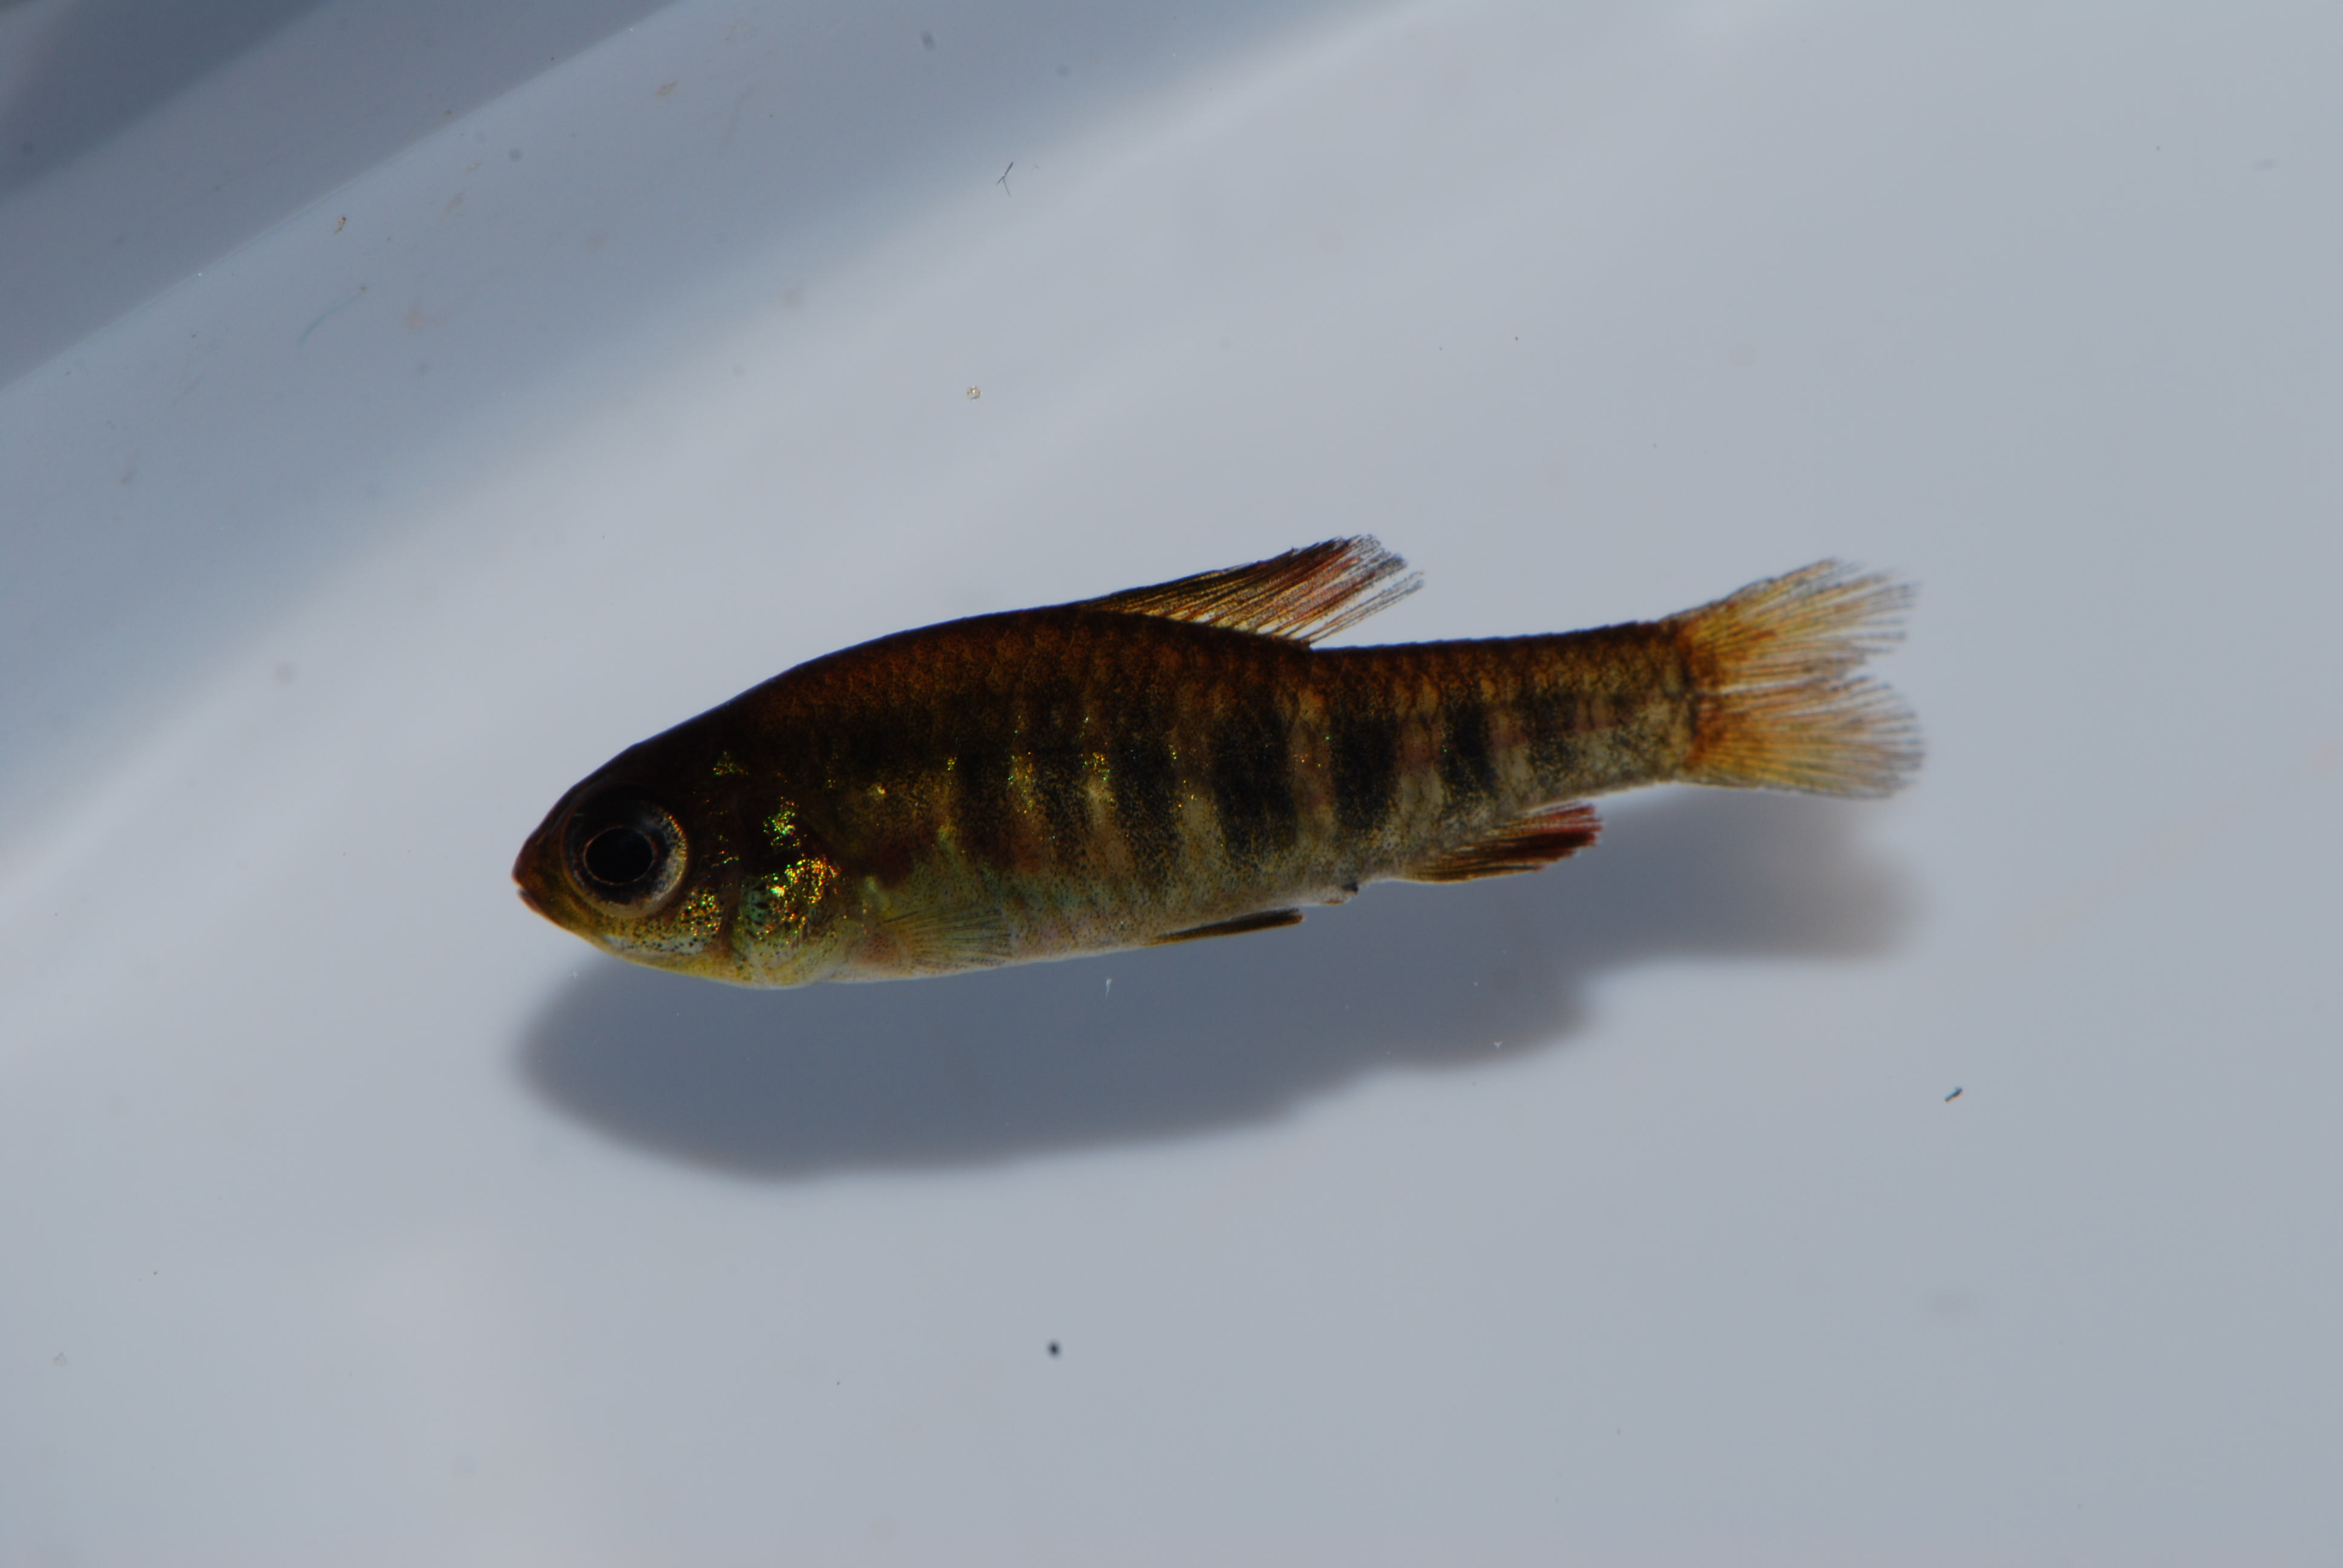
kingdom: Animalia
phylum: Chordata
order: Characiformes
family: Distichodontidae
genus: Neolebias
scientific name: Neolebias lozii
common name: Banded neolebias
